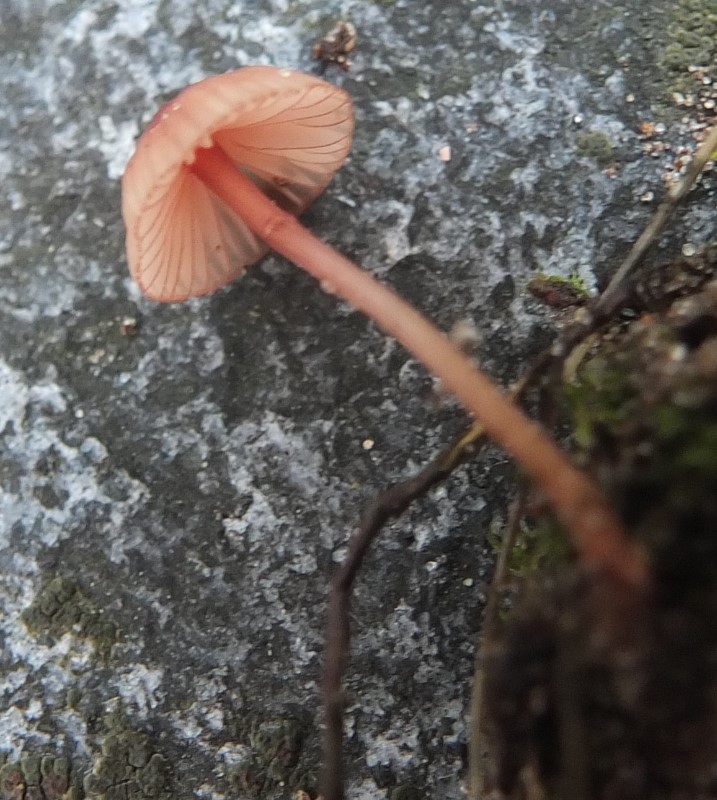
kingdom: Fungi
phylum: Basidiomycota
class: Agaricomycetes
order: Agaricales
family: Mycenaceae
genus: Mycena
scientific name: Mycena olivaceomarginata
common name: brunægget huesvamp
